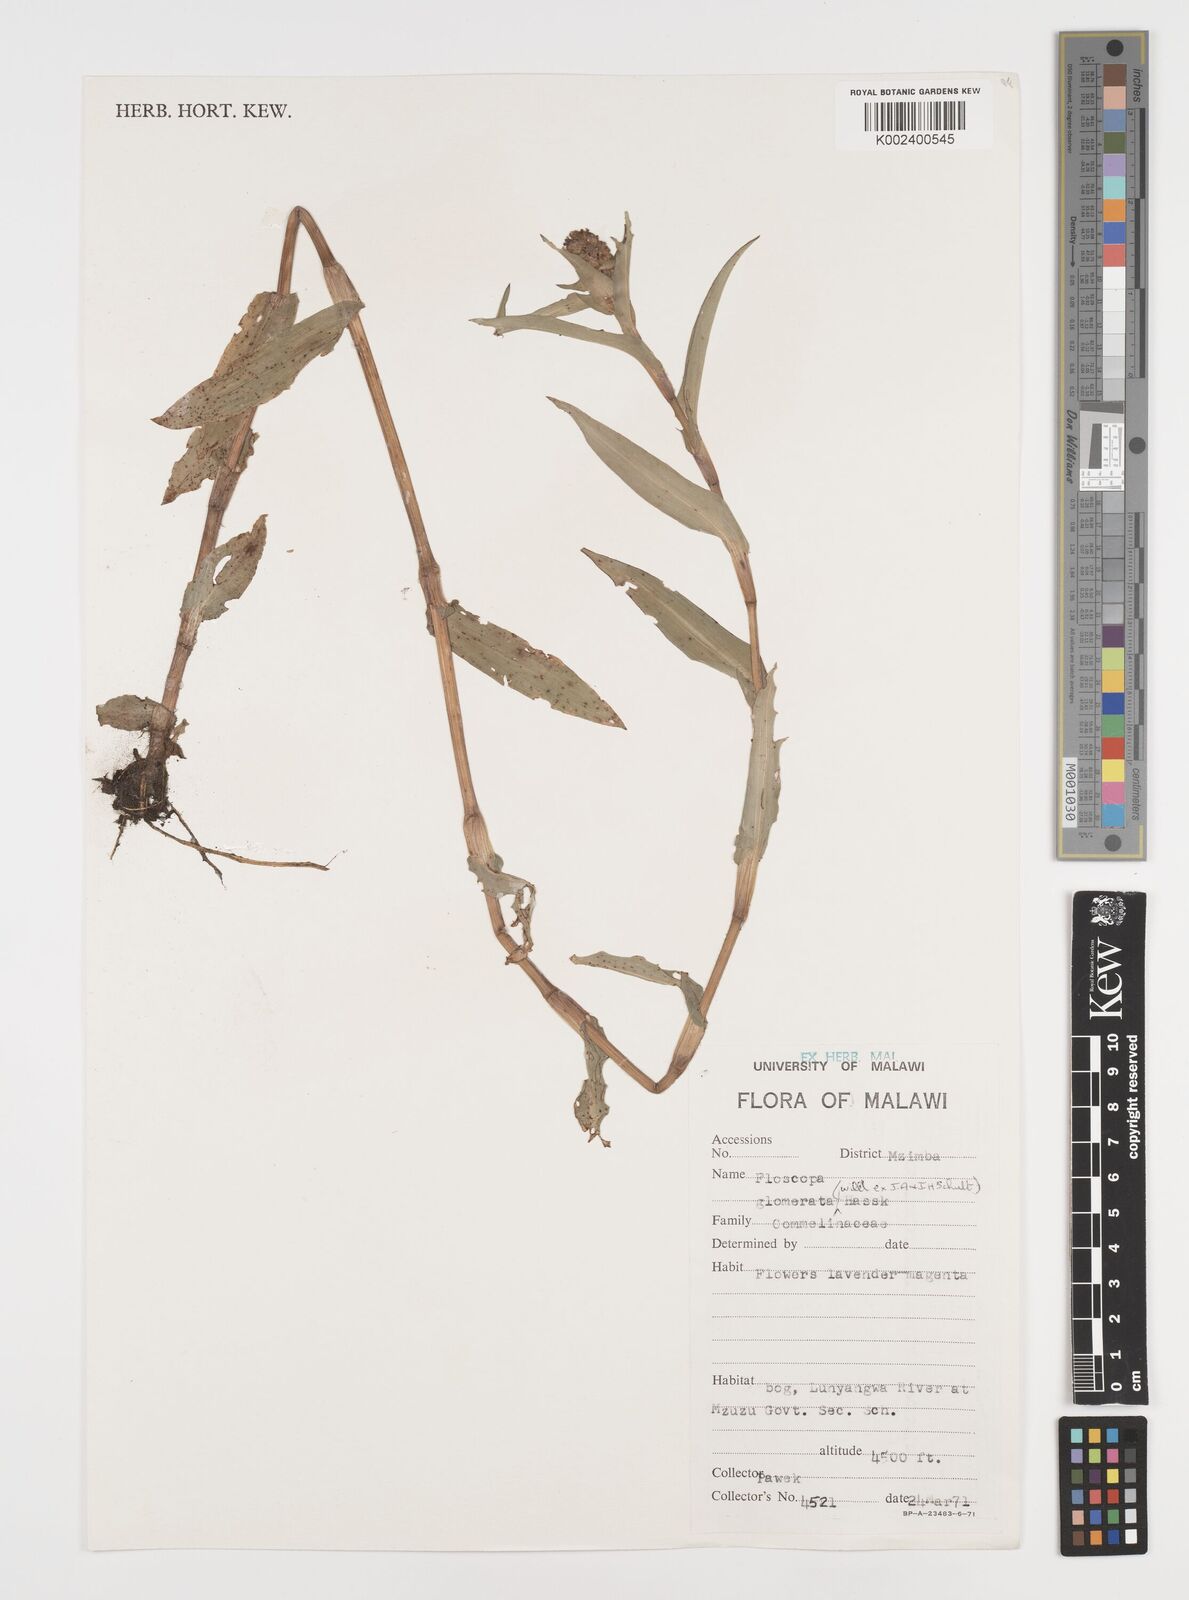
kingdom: Plantae
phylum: Tracheophyta
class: Liliopsida
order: Commelinales
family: Commelinaceae
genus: Floscopa
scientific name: Floscopa glomerata
